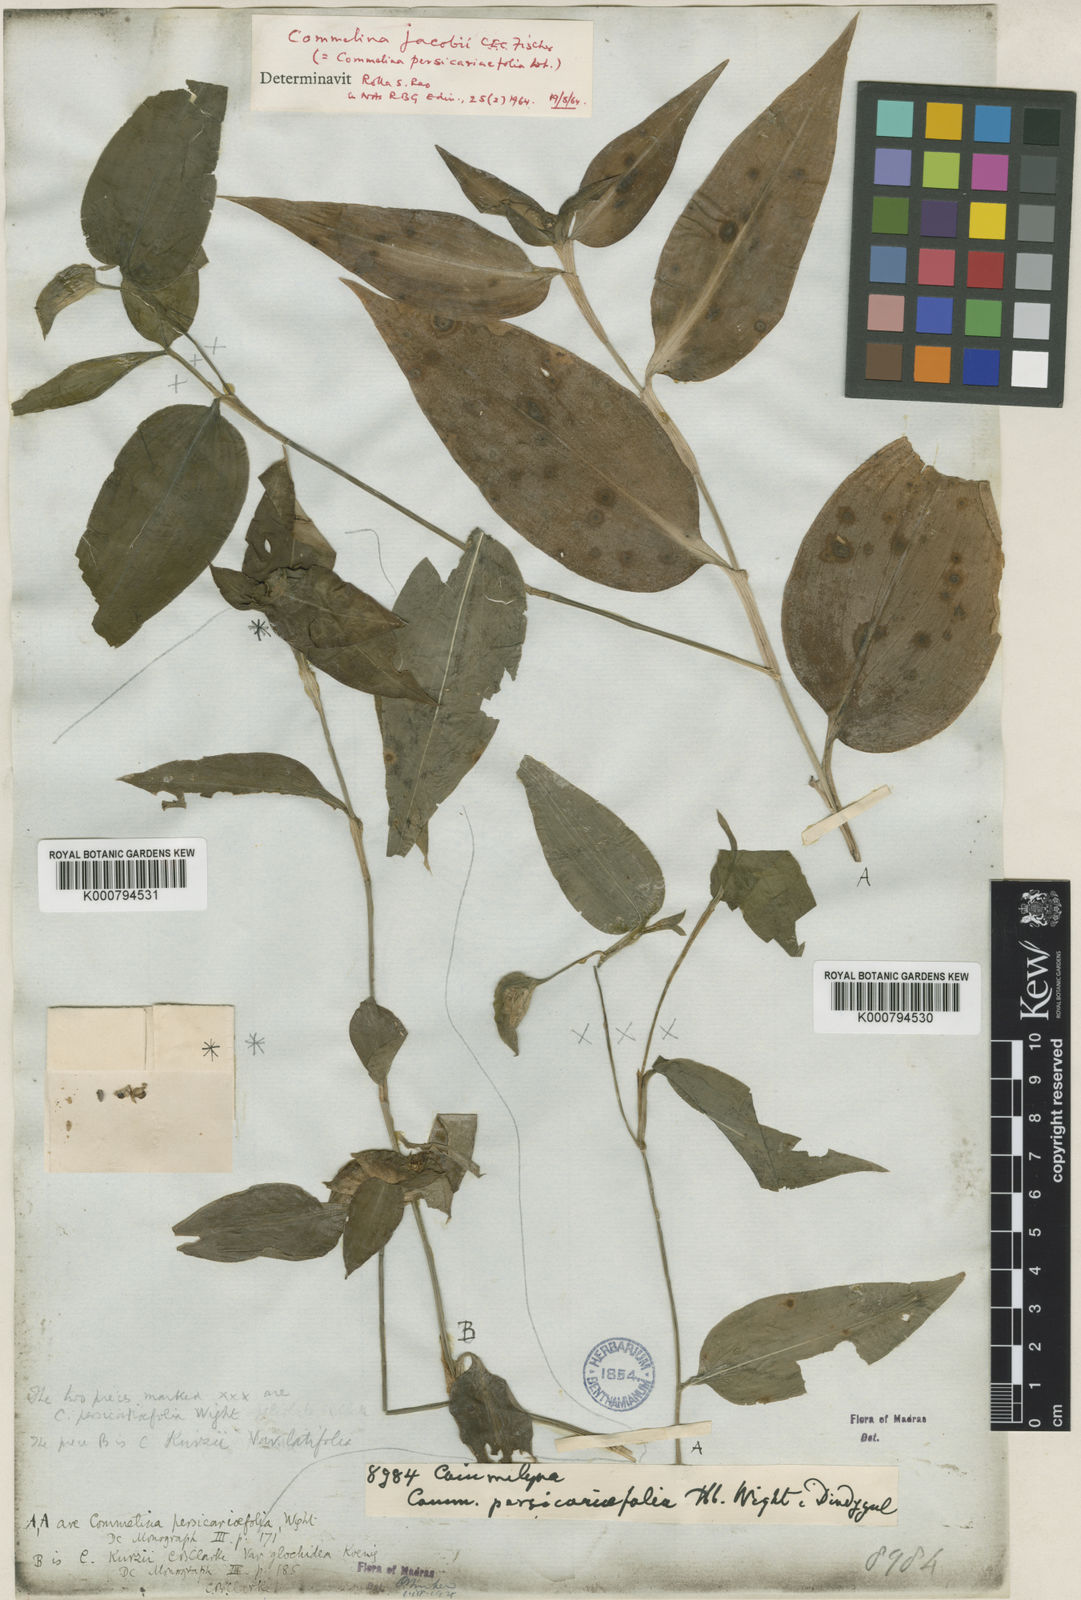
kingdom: Plantae
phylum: Tracheophyta
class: Liliopsida
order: Commelinales
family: Commelinaceae
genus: Commelina
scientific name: Commelina petersii
